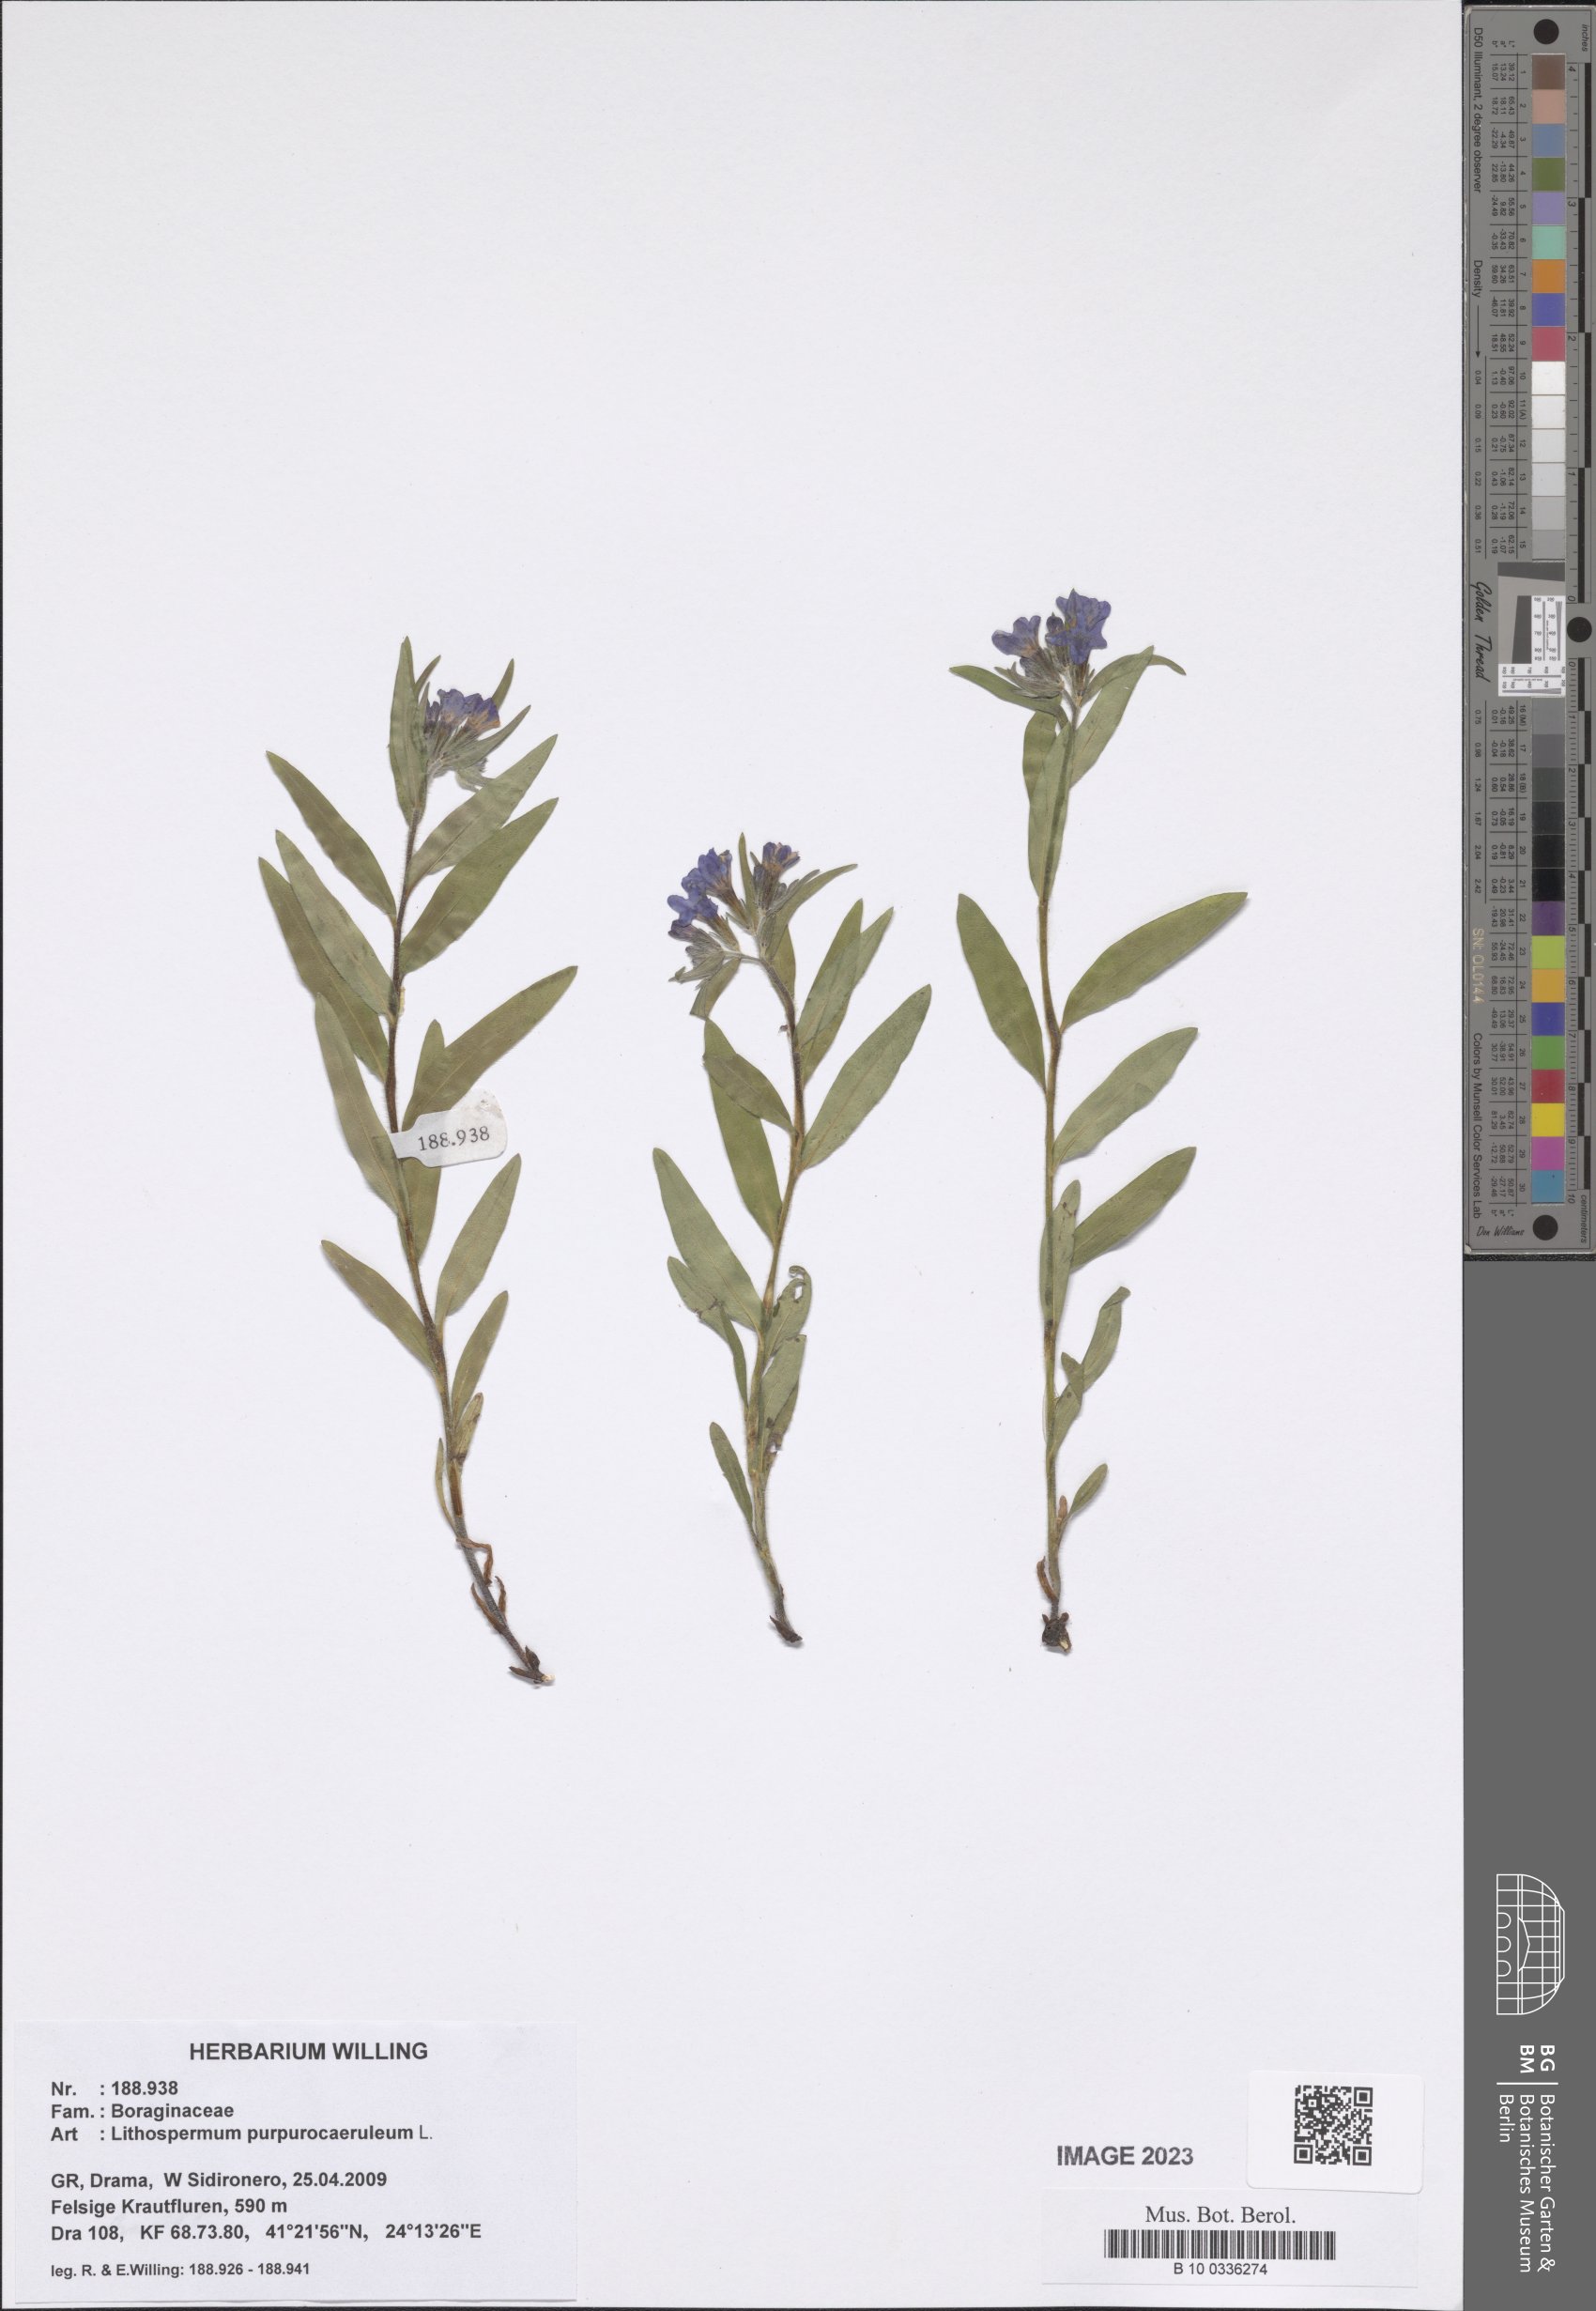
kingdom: Plantae
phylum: Tracheophyta
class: Magnoliopsida
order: Boraginales
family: Boraginaceae
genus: Aegonychon
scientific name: Aegonychon purpurocaeruleum
